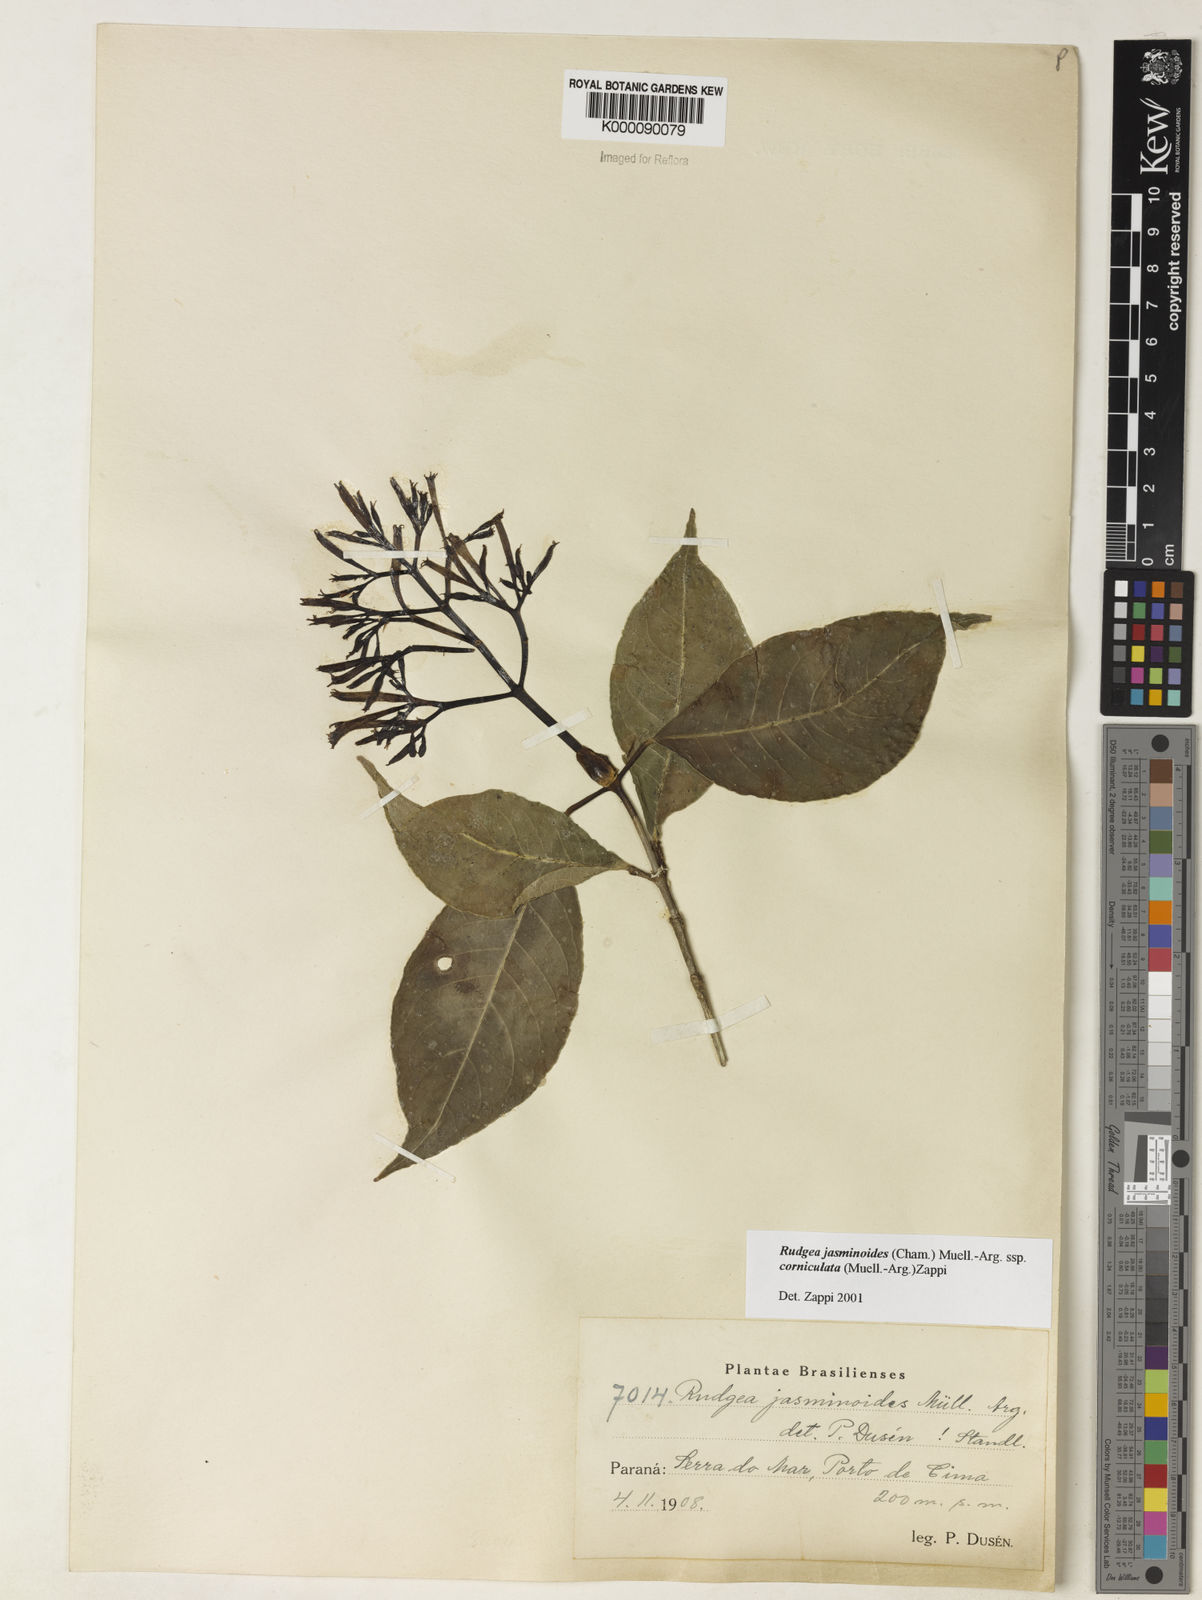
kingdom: Plantae
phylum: Tracheophyta
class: Magnoliopsida
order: Gentianales
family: Rubiaceae
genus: Rudgea
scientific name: Rudgea jasminoides
